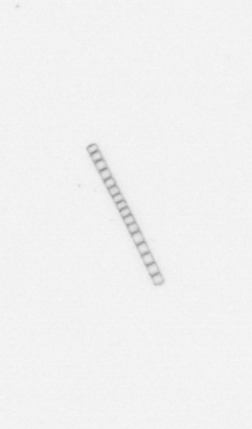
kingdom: Chromista
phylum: Ochrophyta
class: Bacillariophyceae
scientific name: Bacillariophyceae
